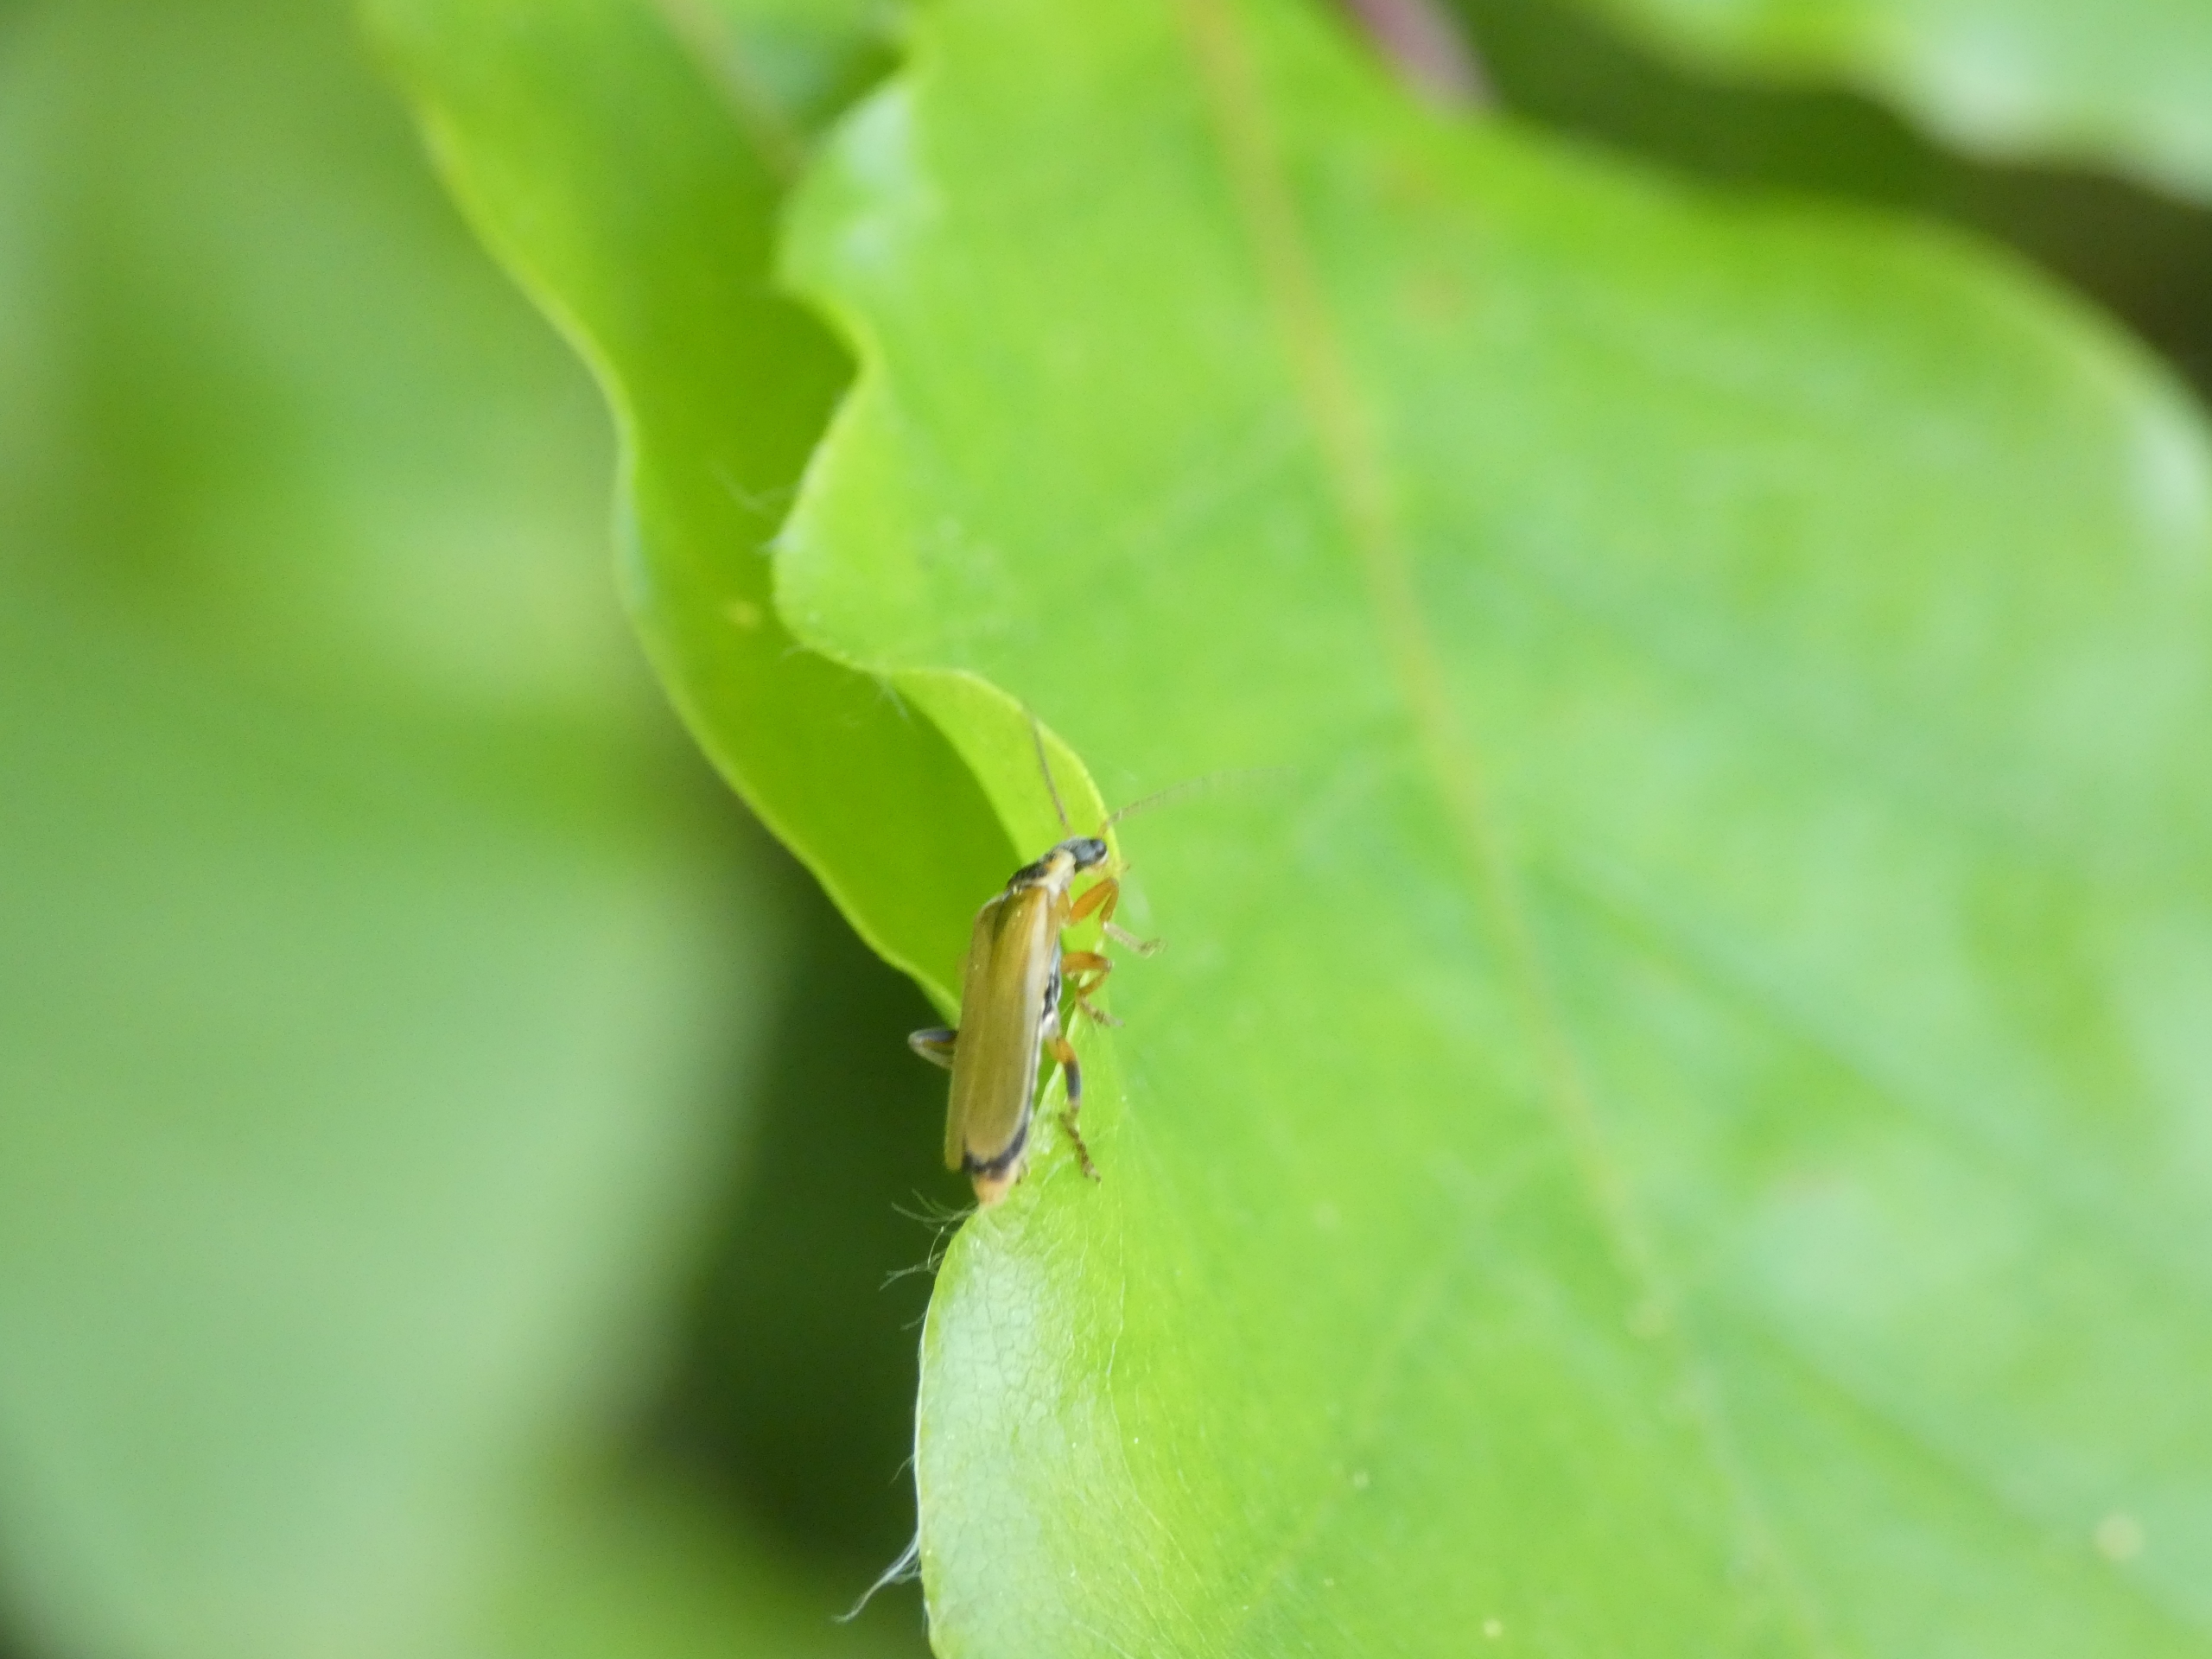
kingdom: Animalia
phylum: Arthropoda
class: Insecta
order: Coleoptera
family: Cantharidae
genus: Cantharis
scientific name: Cantharis decipiens
